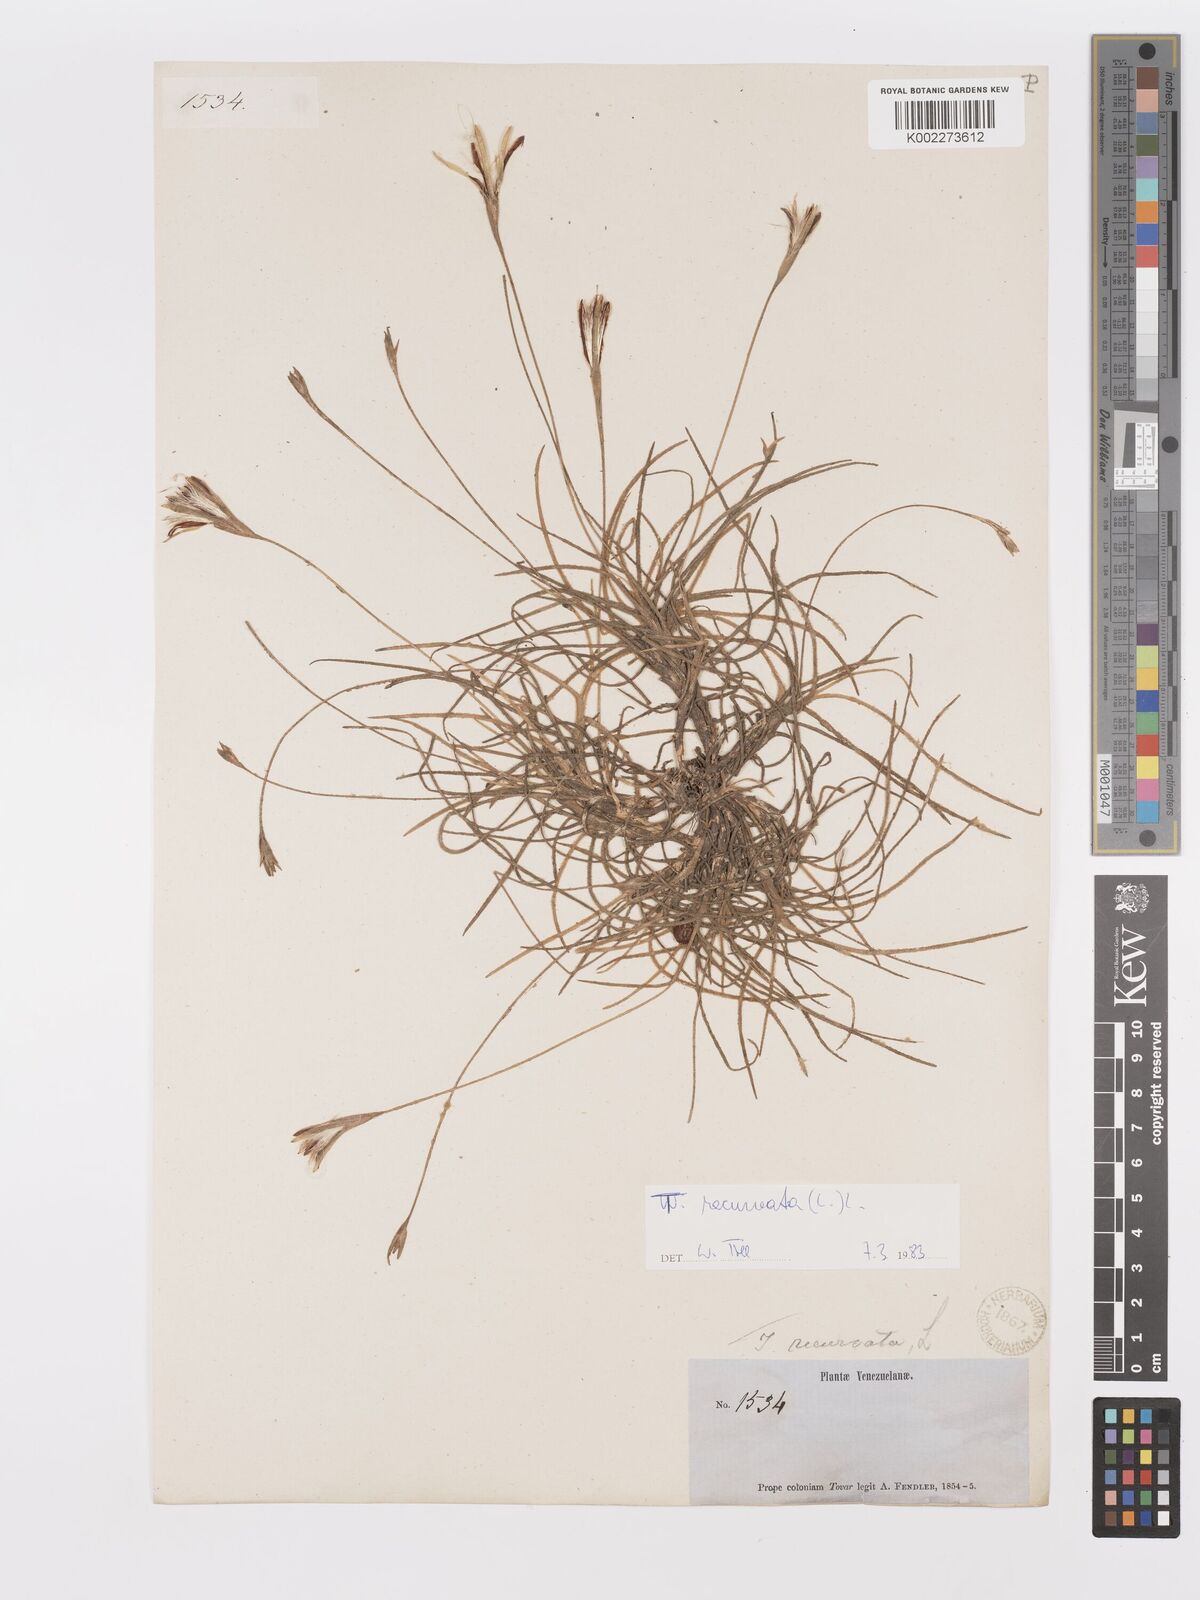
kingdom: Plantae
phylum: Tracheophyta
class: Liliopsida
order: Poales
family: Bromeliaceae
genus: Tillandsia
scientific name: Tillandsia recurvata
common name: Small ballmoss
